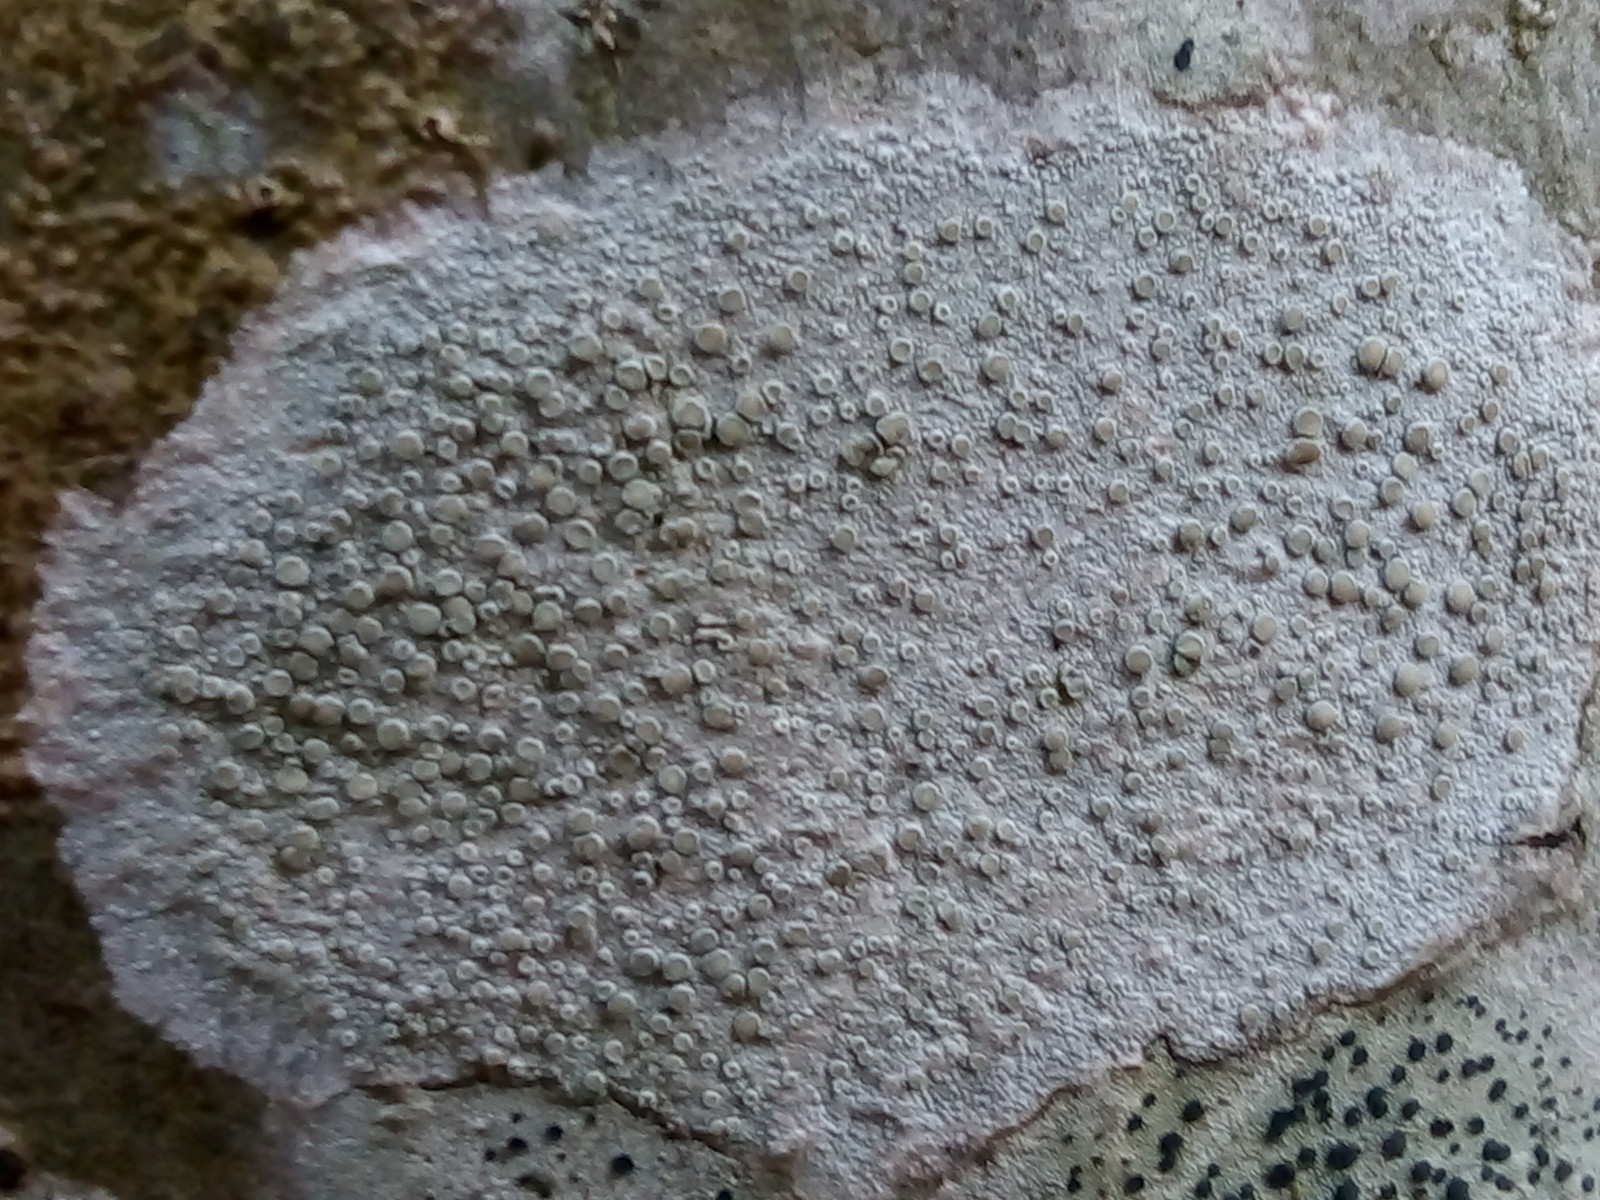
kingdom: Fungi
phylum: Ascomycota
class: Lecanoromycetes
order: Lecanorales
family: Lecanoraceae
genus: Glaucomaria
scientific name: Glaucomaria carpinea
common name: hviddugget kantskivelav
